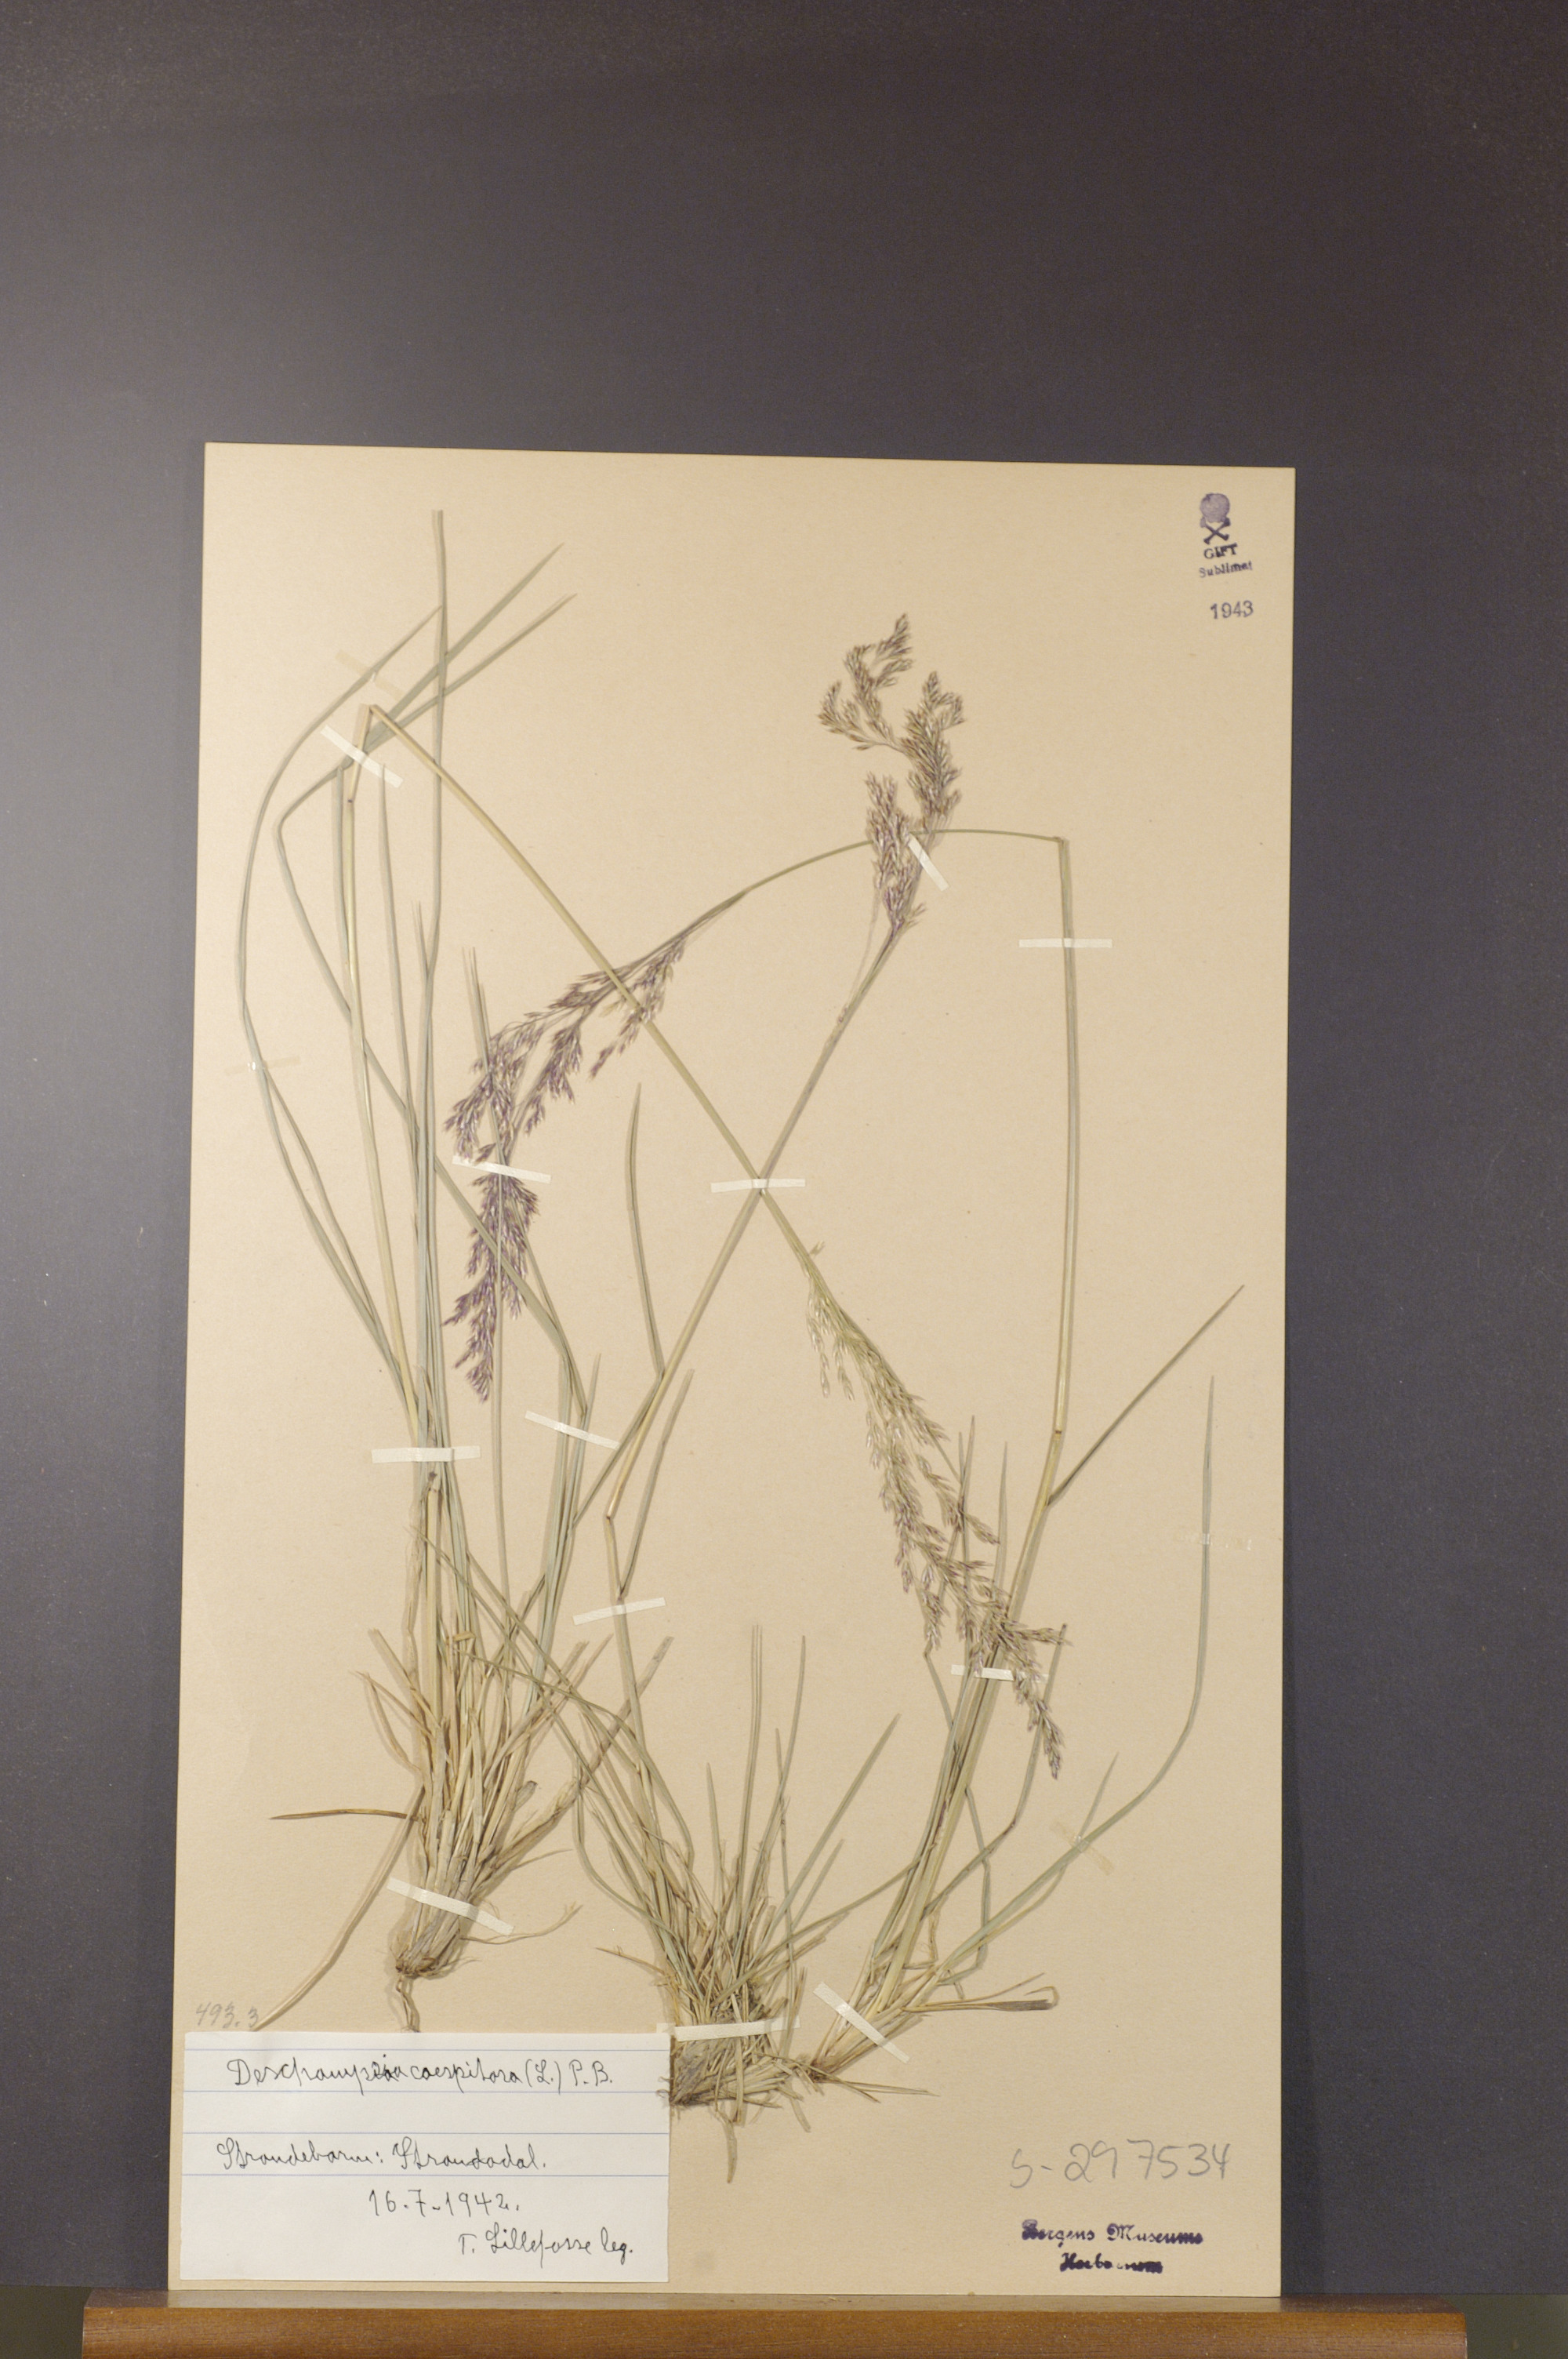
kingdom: Plantae
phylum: Tracheophyta
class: Liliopsida
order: Poales
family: Poaceae
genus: Deschampsia
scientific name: Deschampsia cespitosa
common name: Tufted hair-grass
